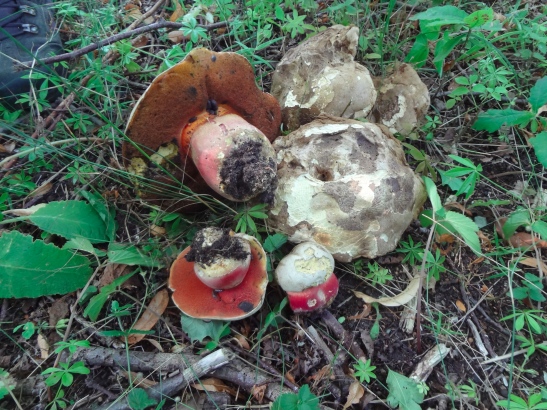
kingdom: Fungi
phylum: Basidiomycota
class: Agaricomycetes
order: Boletales
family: Boletaceae
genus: Rubroboletus
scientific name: Rubroboletus satanas
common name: Satans rørhat
